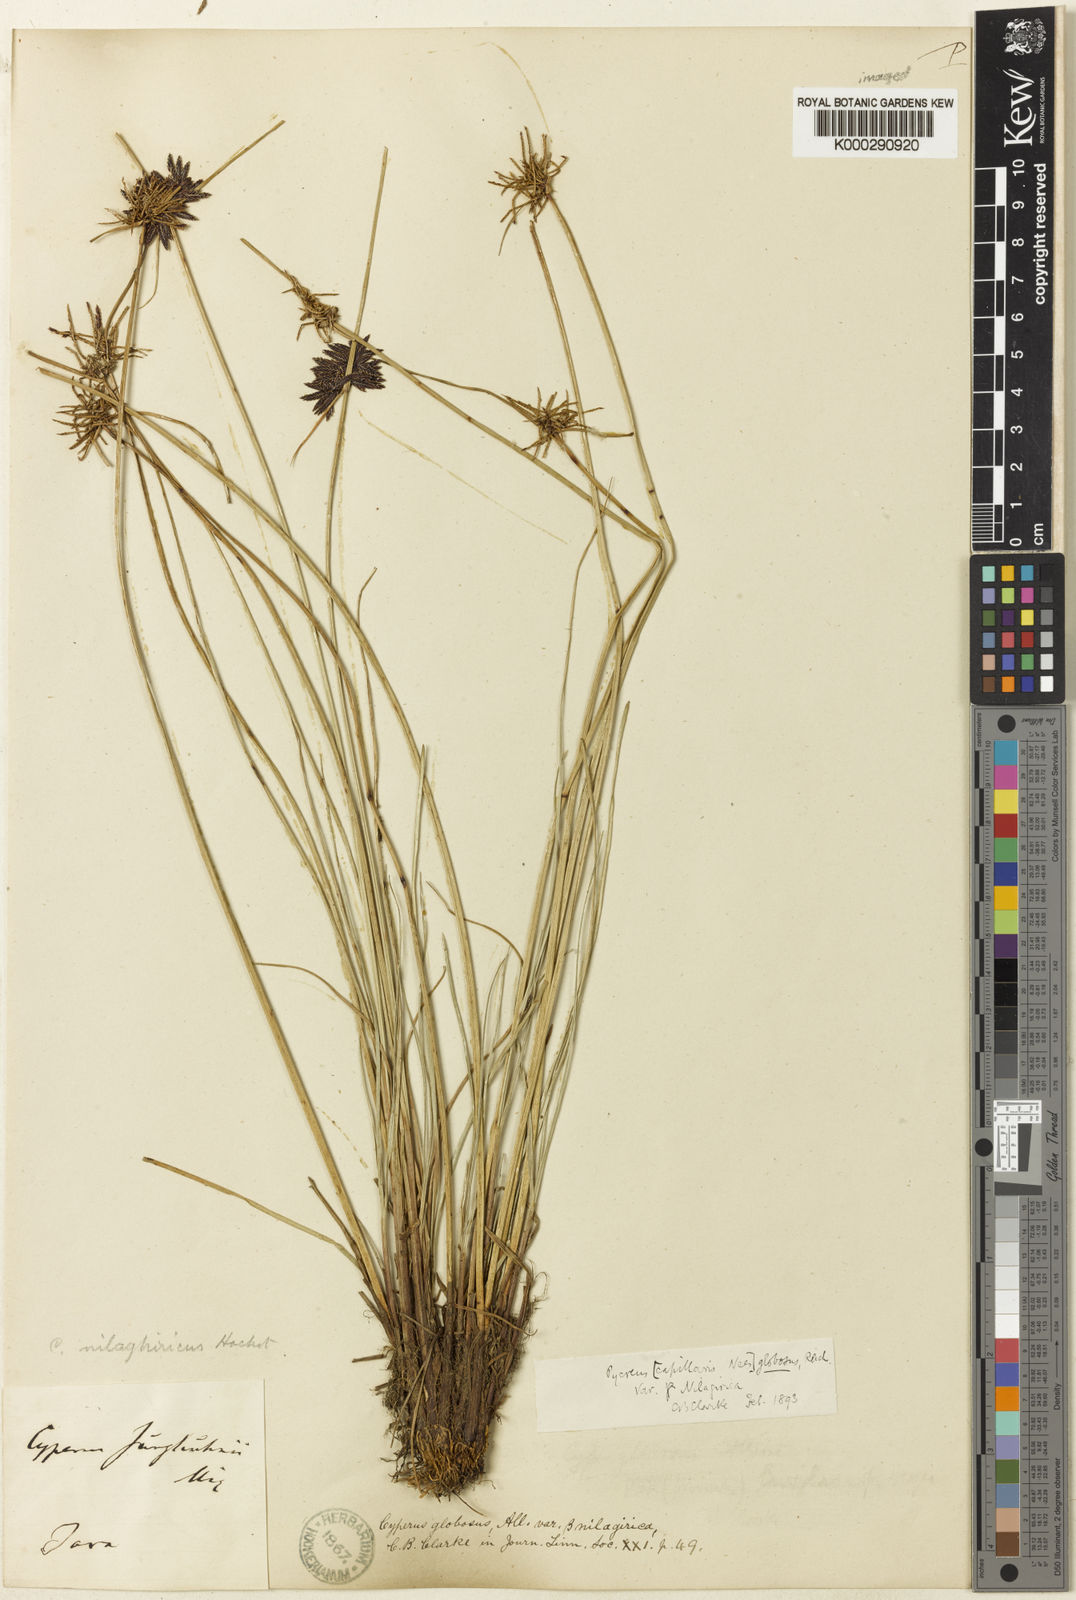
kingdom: Plantae
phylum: Tracheophyta
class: Liliopsida
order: Poales
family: Cyperaceae
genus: Cyperus
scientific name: Cyperus flavidus
